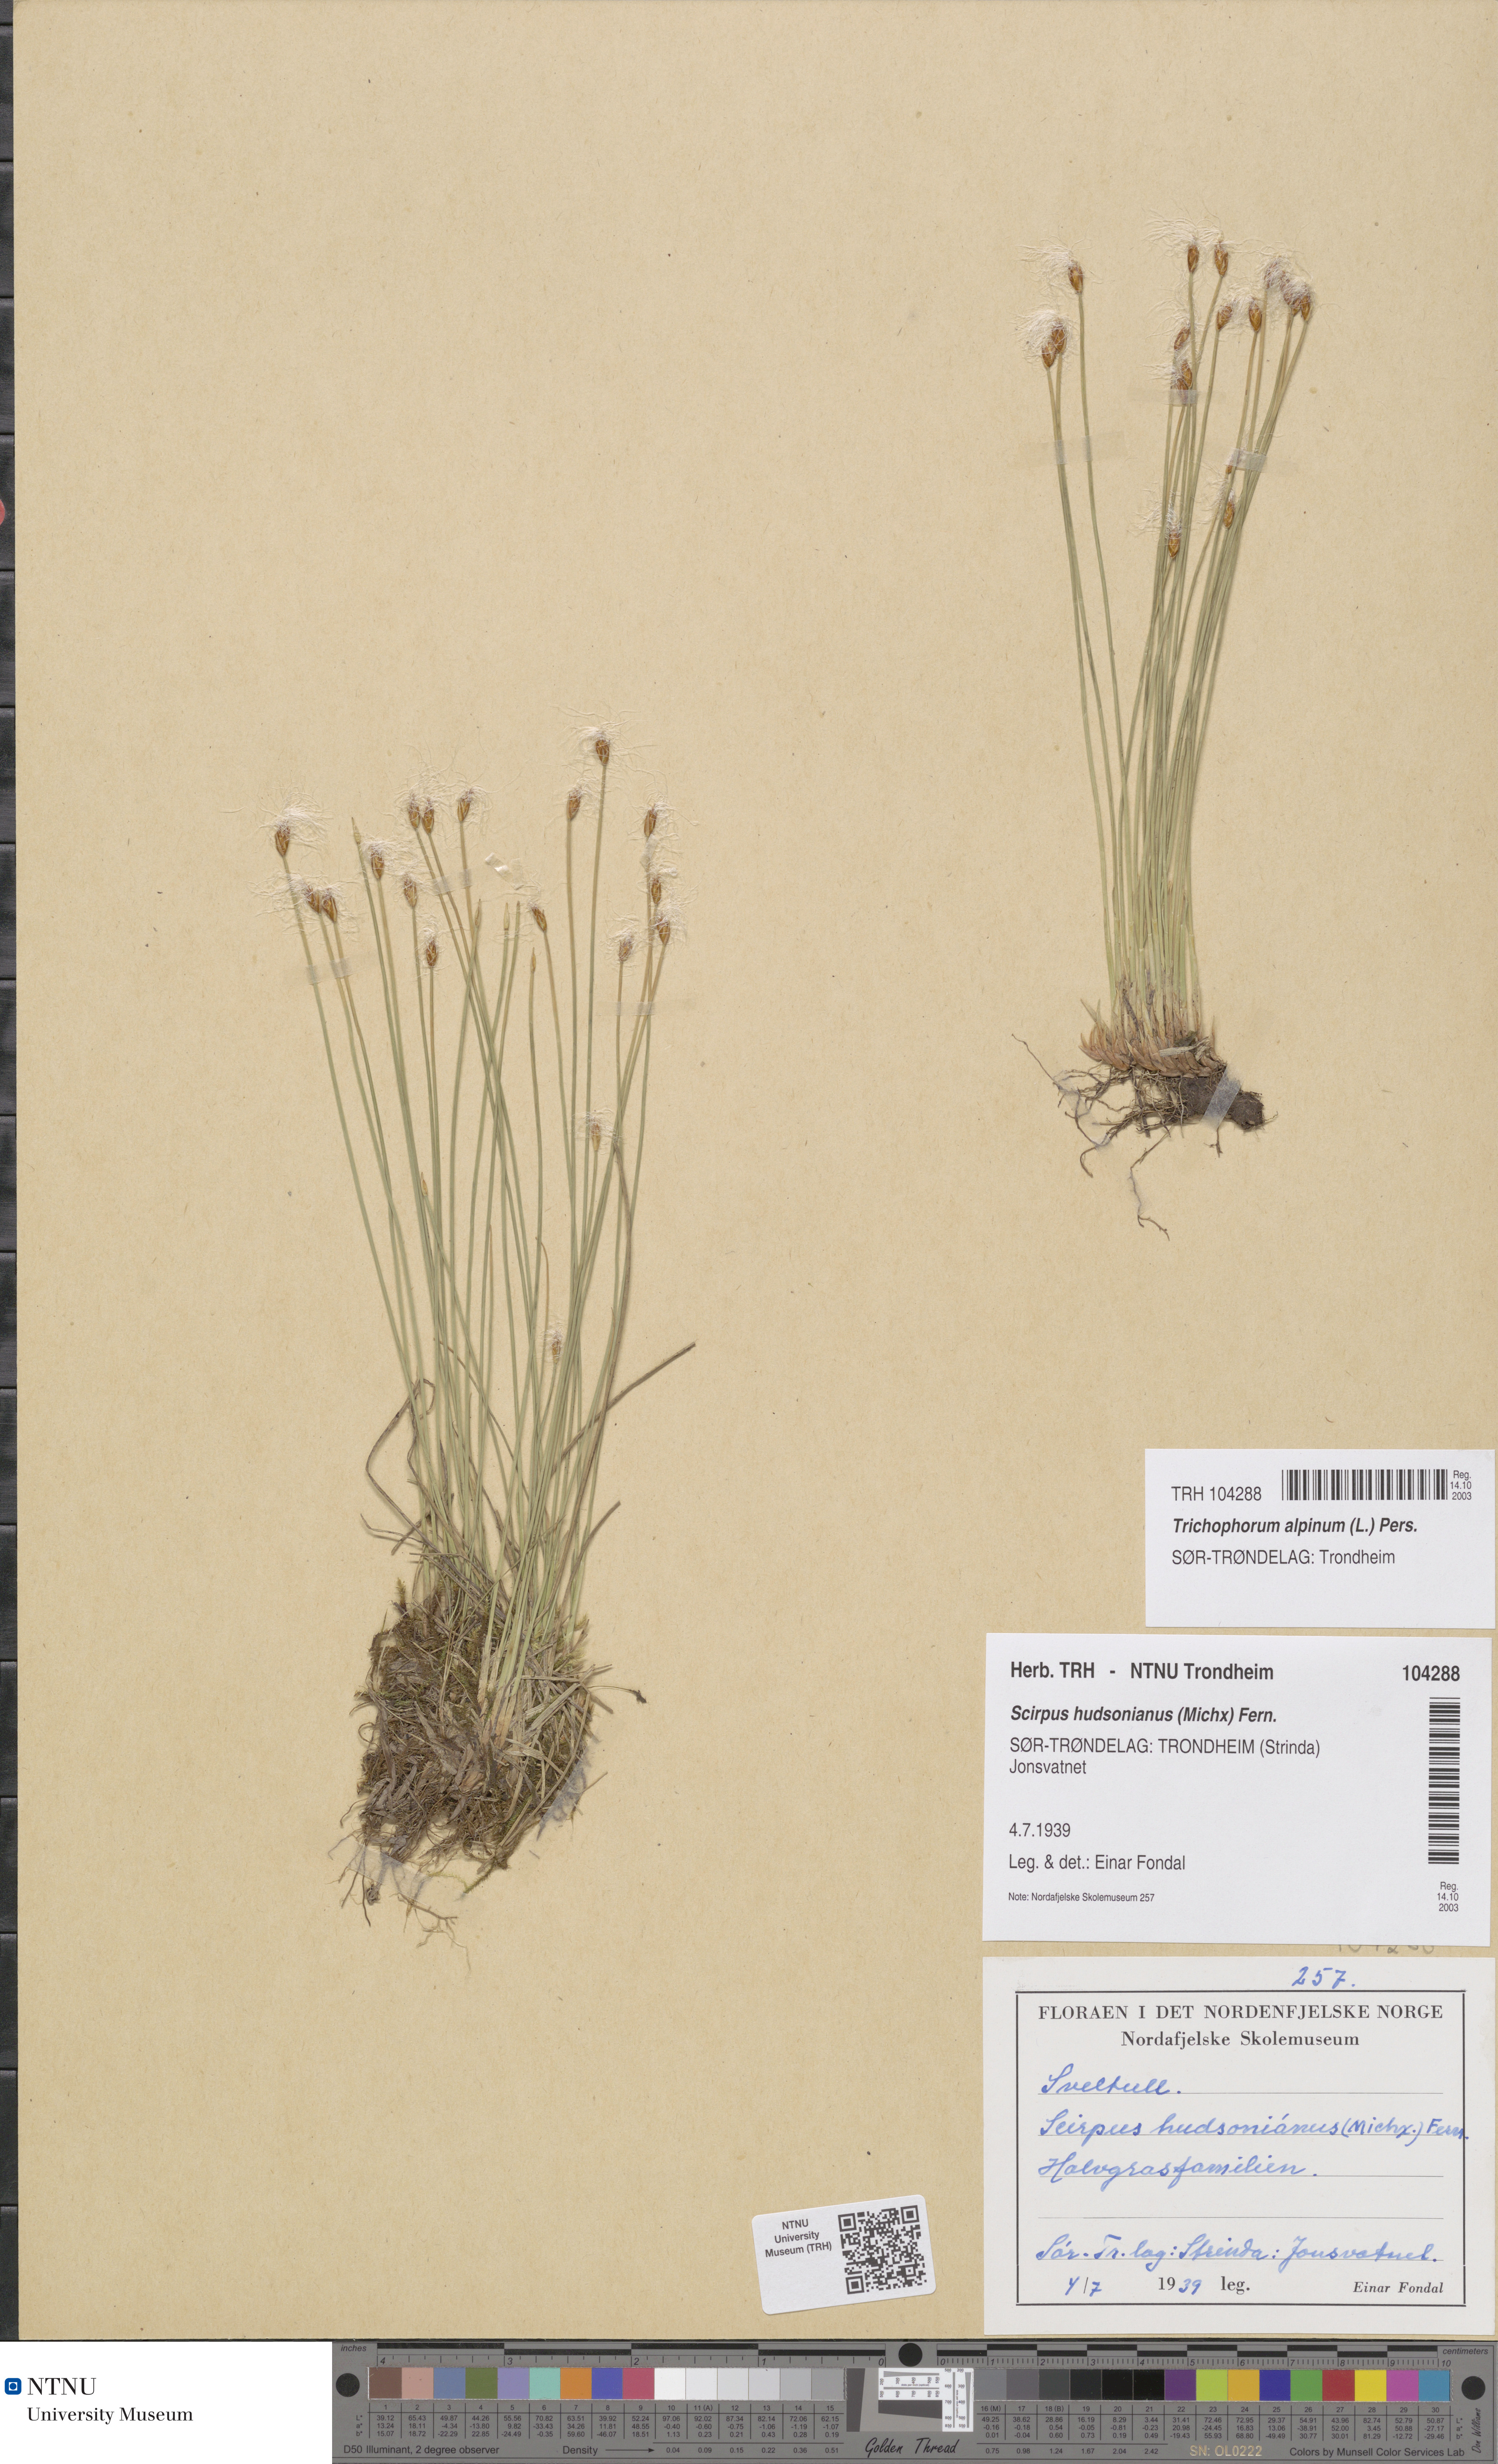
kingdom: Plantae
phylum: Tracheophyta
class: Liliopsida
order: Poales
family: Cyperaceae
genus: Trichophorum
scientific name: Trichophorum alpinum
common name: Alpine bulrush
